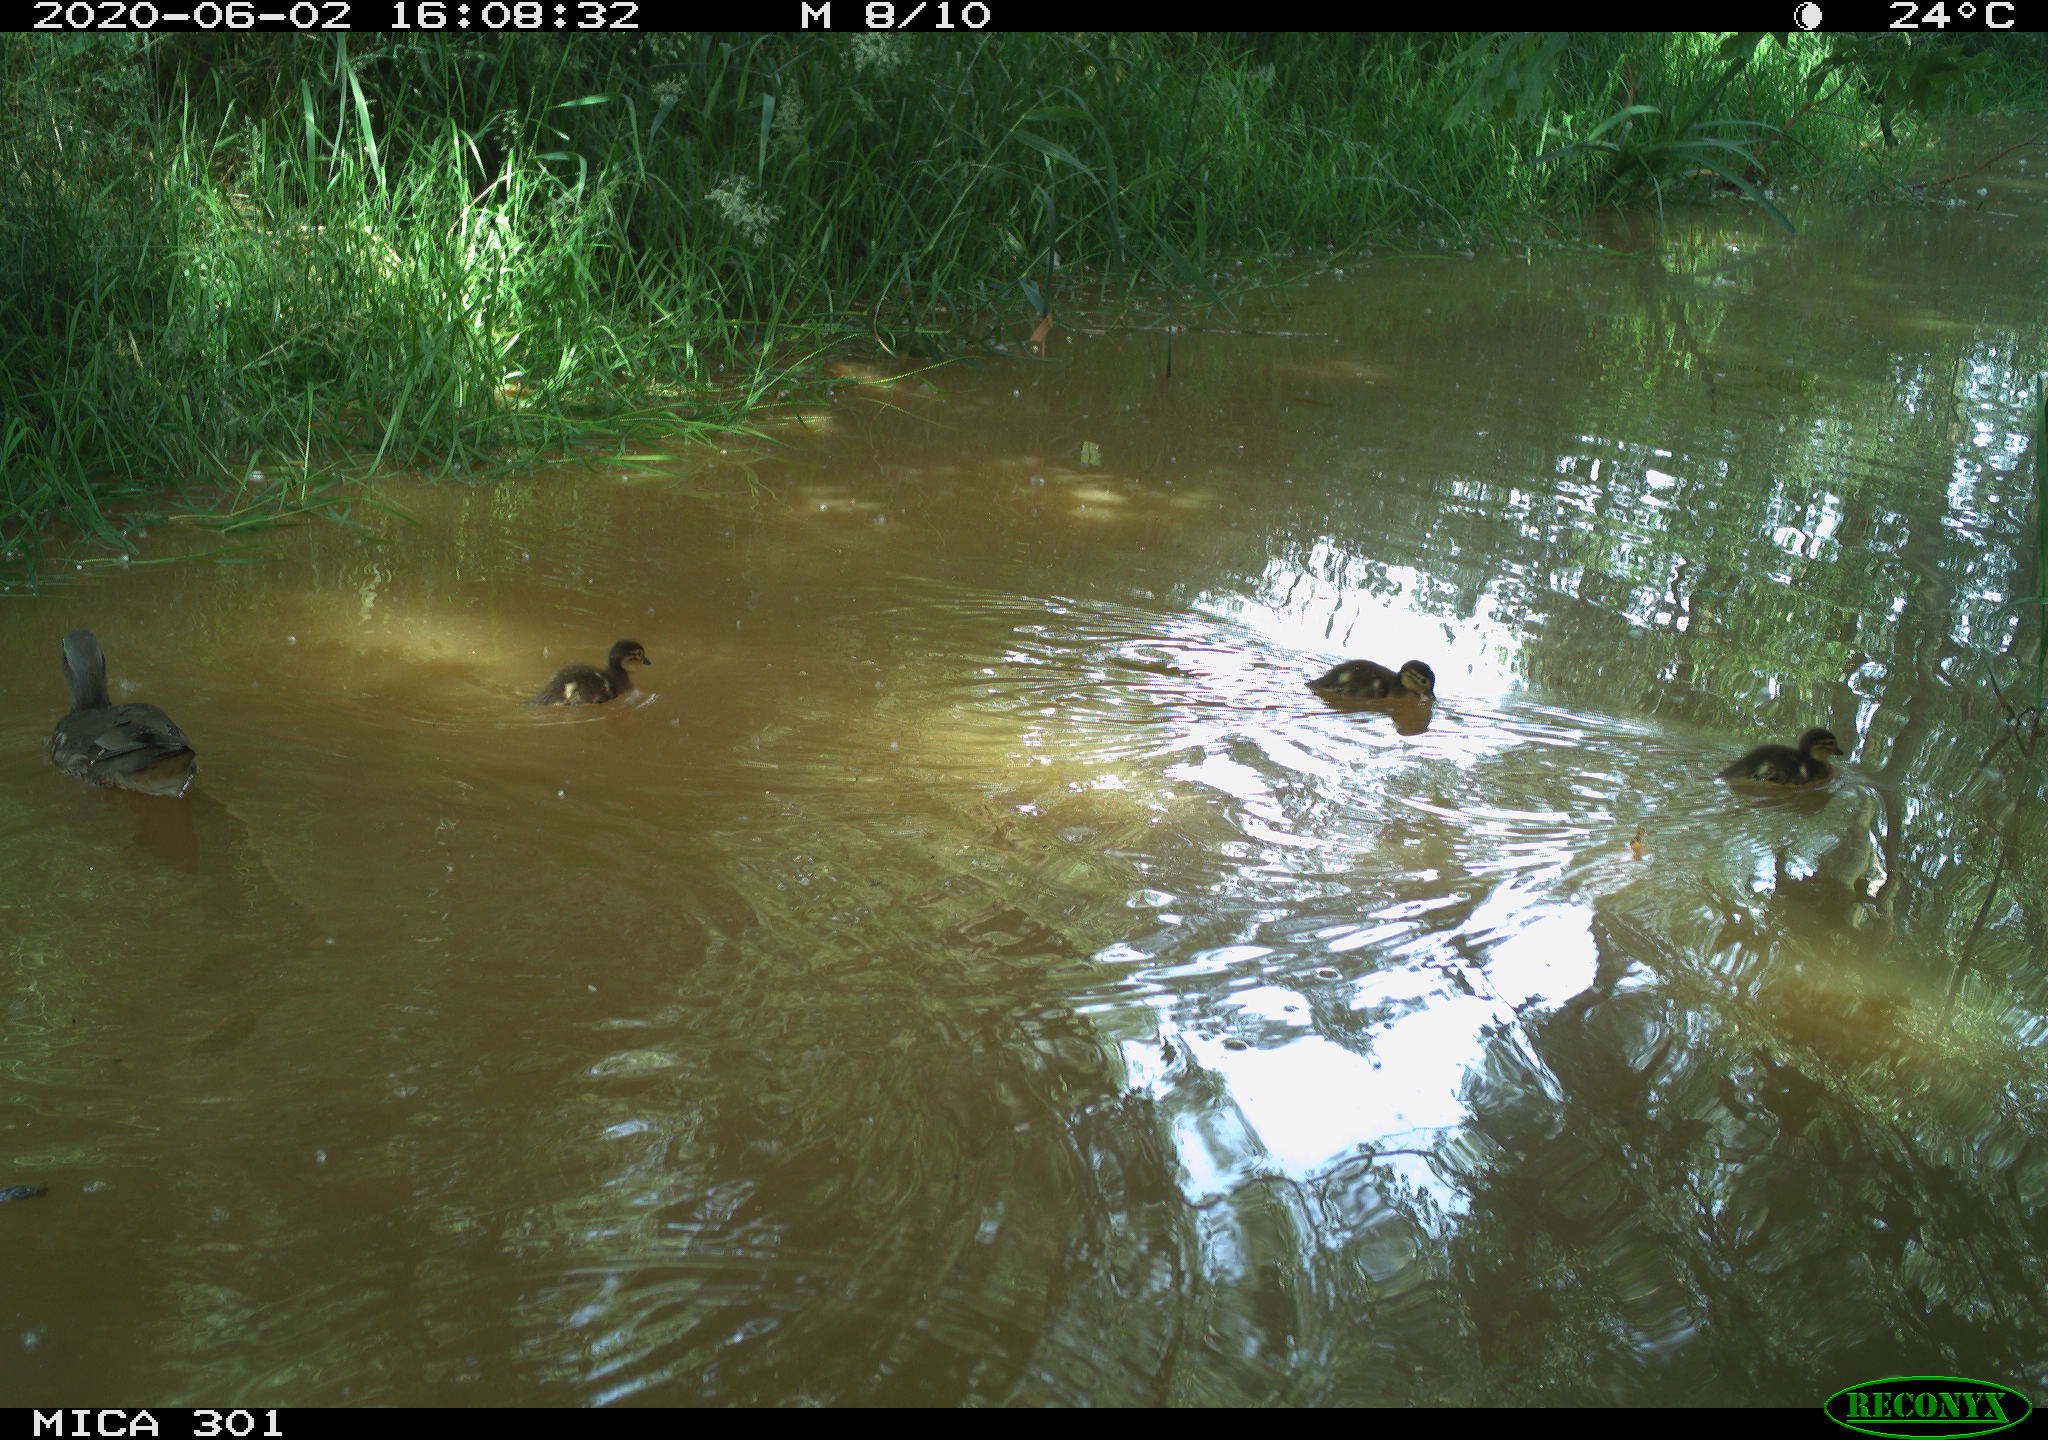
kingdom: Animalia
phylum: Chordata
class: Aves
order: Anseriformes
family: Anatidae
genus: Aix
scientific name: Aix galericulata
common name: Mandarin duck
